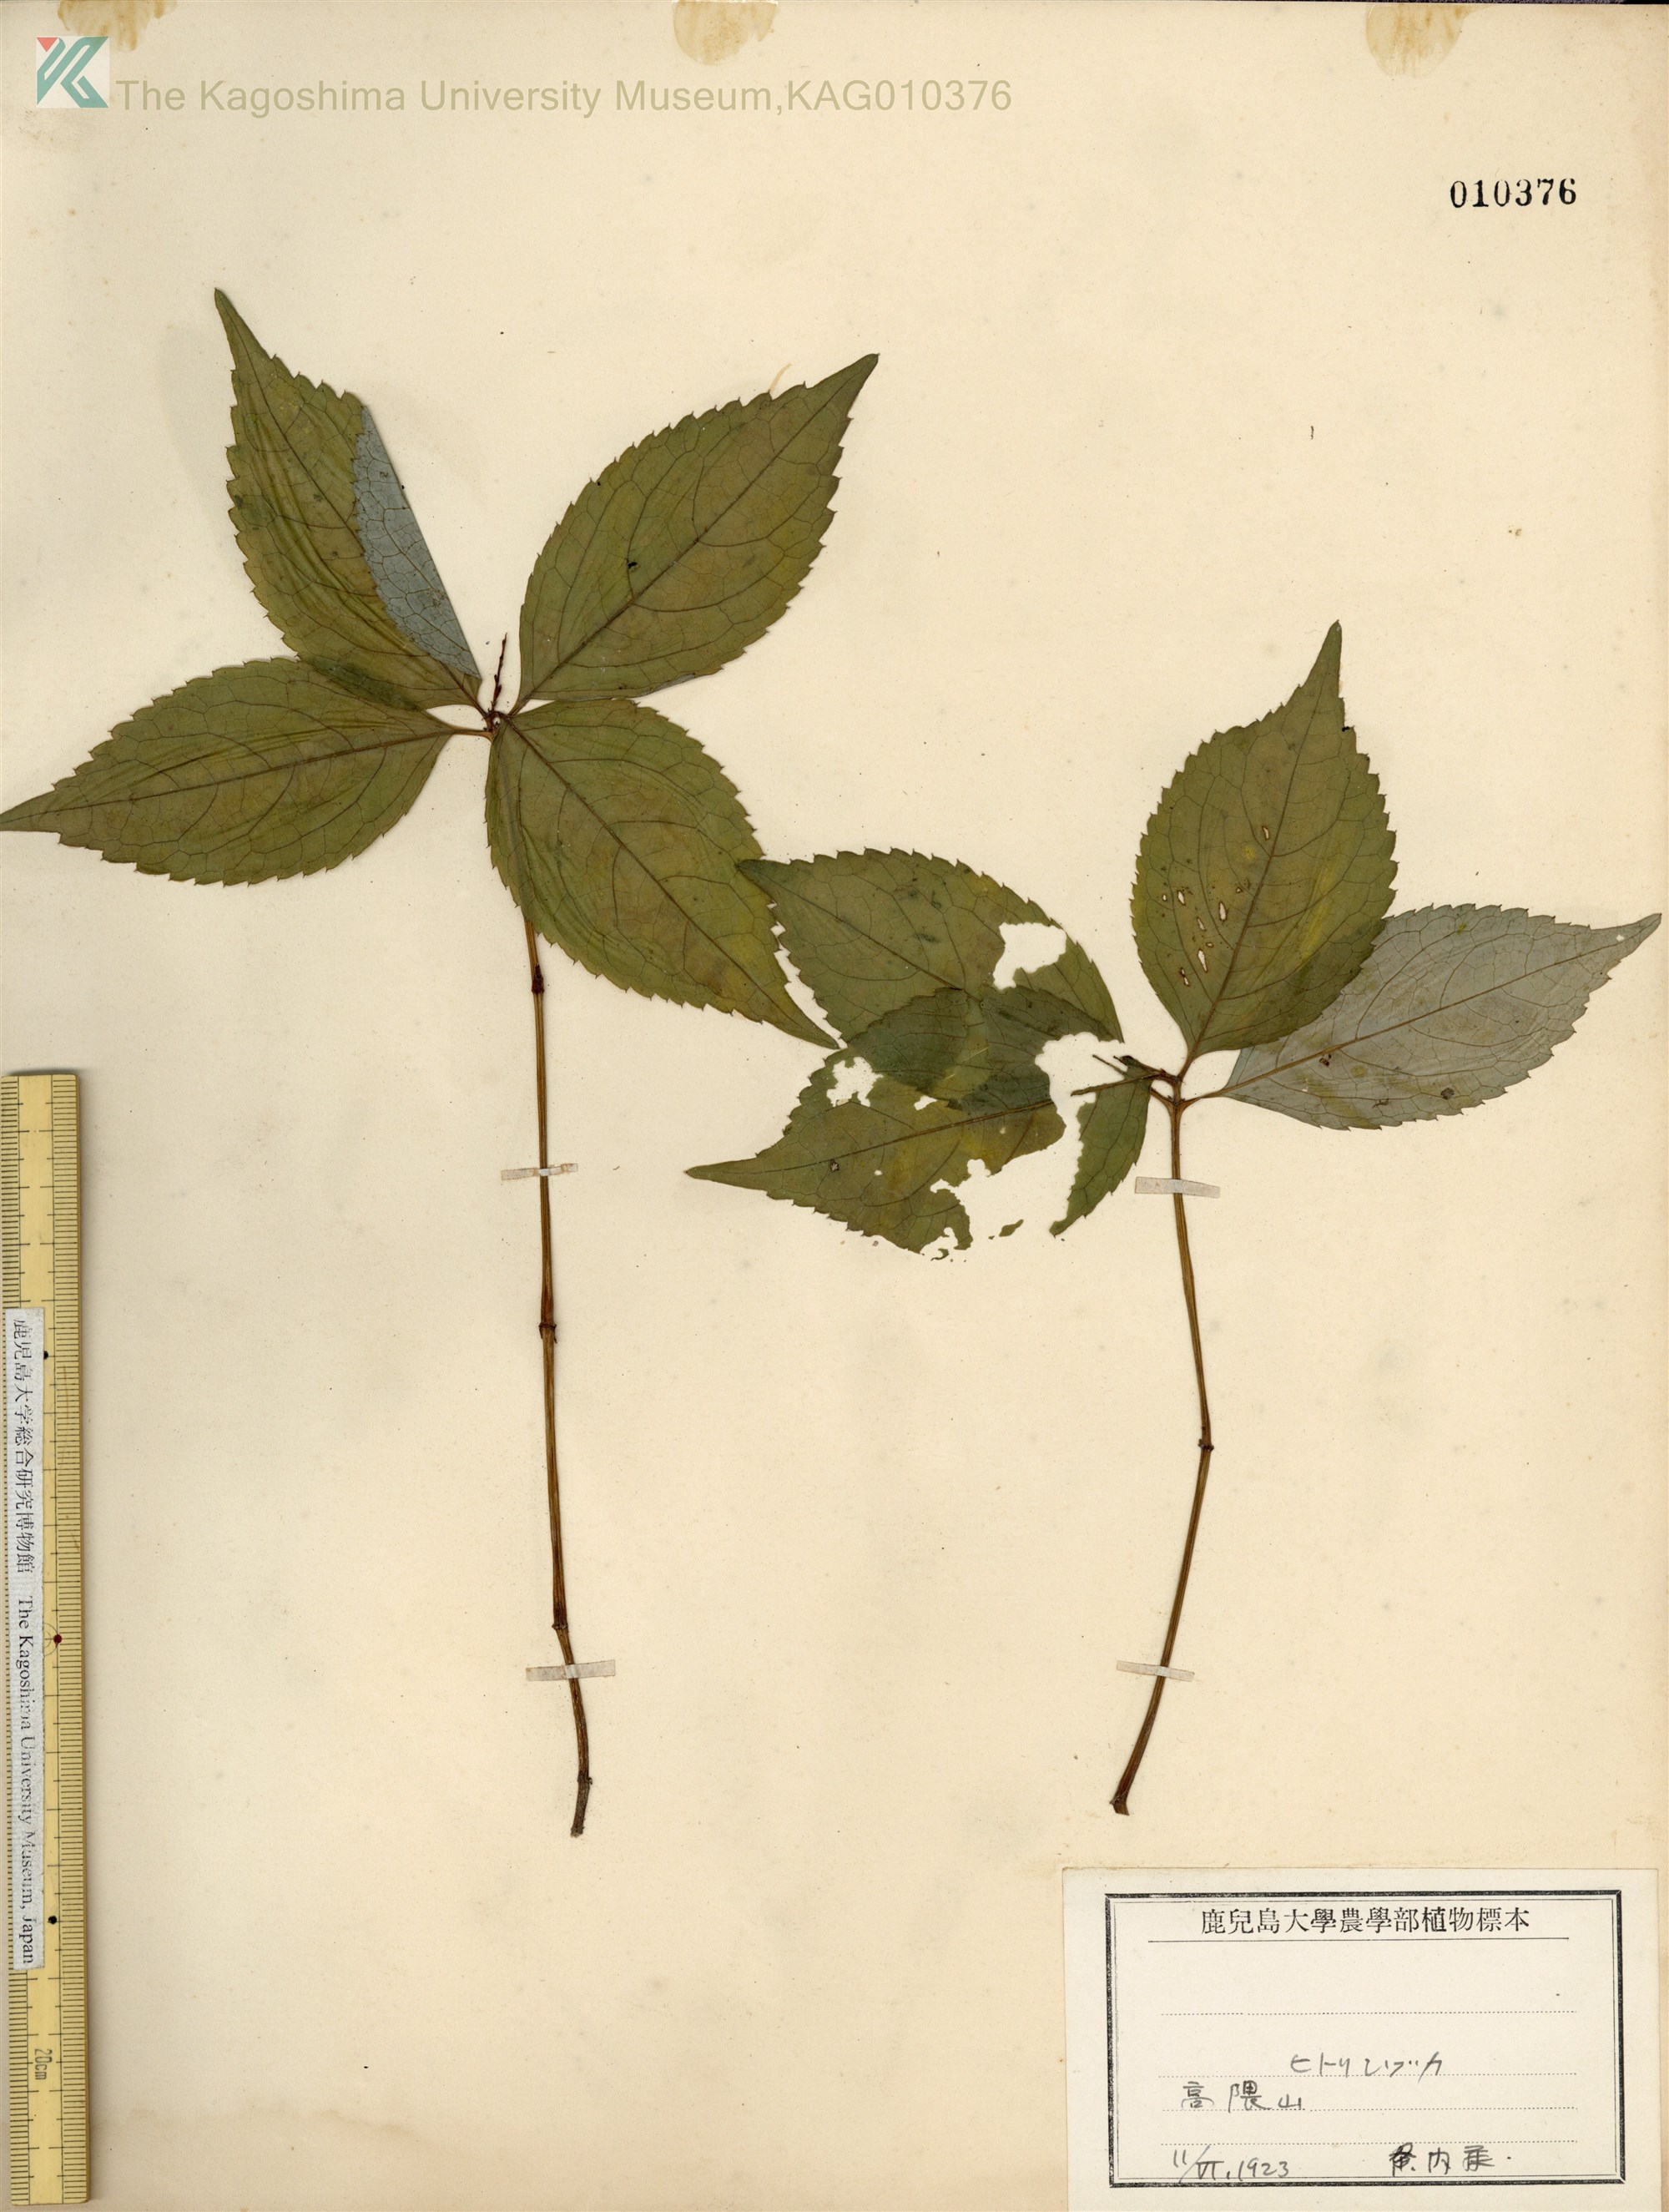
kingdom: Plantae
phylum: Tracheophyta
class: Magnoliopsida
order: Chloranthales
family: Chloranthaceae
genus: Chloranthus
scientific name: Chloranthus serratus
